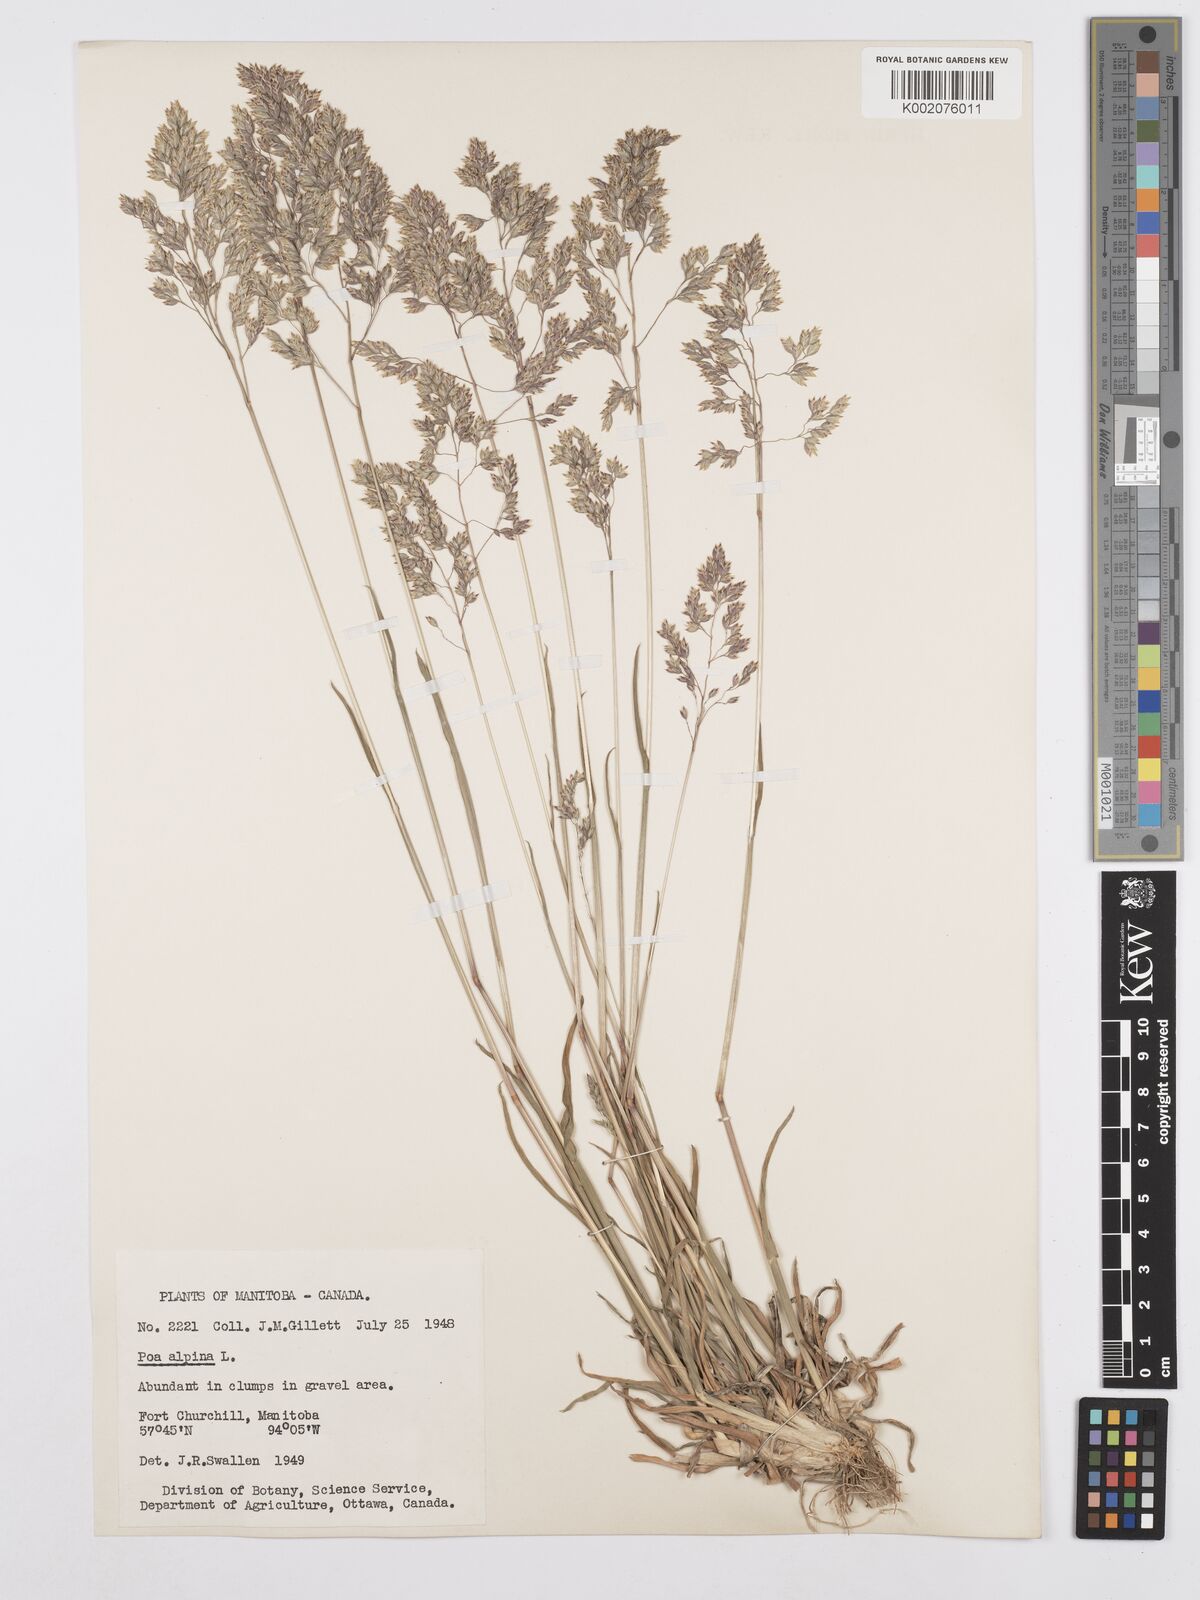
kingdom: Plantae
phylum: Tracheophyta
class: Liliopsida
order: Poales
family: Poaceae
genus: Poa
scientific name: Poa alpina
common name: Alpine bluegrass
